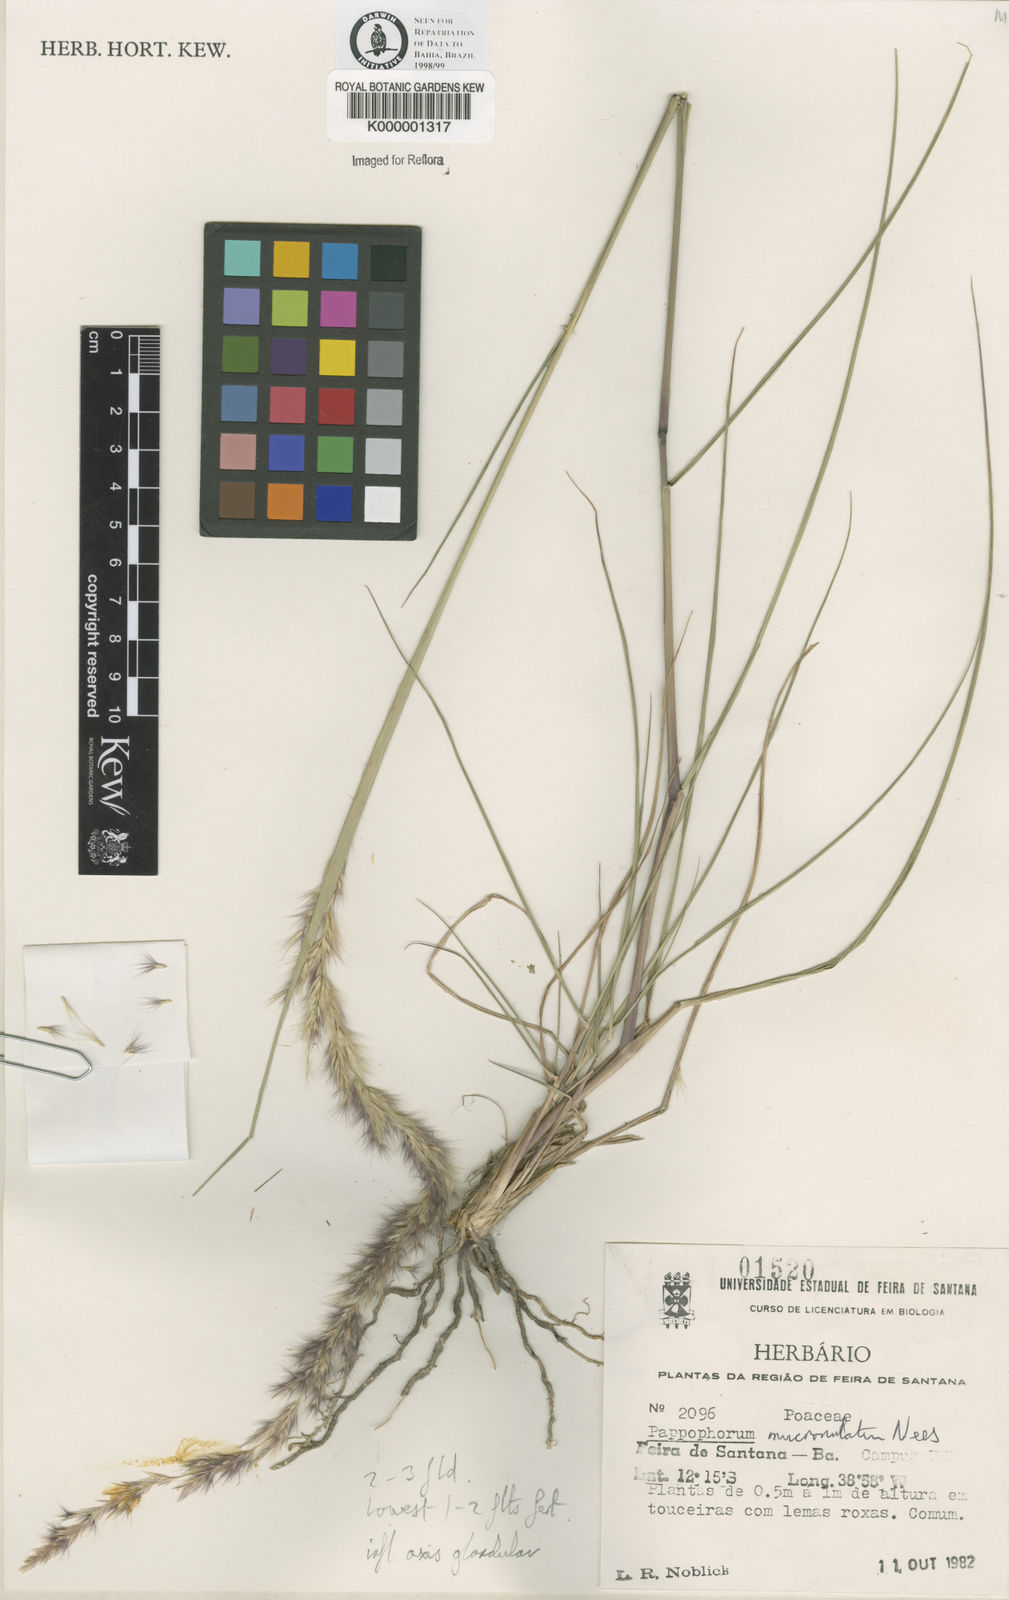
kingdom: Plantae
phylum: Tracheophyta
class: Liliopsida
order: Poales
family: Poaceae
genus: Pappophorum
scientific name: Pappophorum mucronulatum
